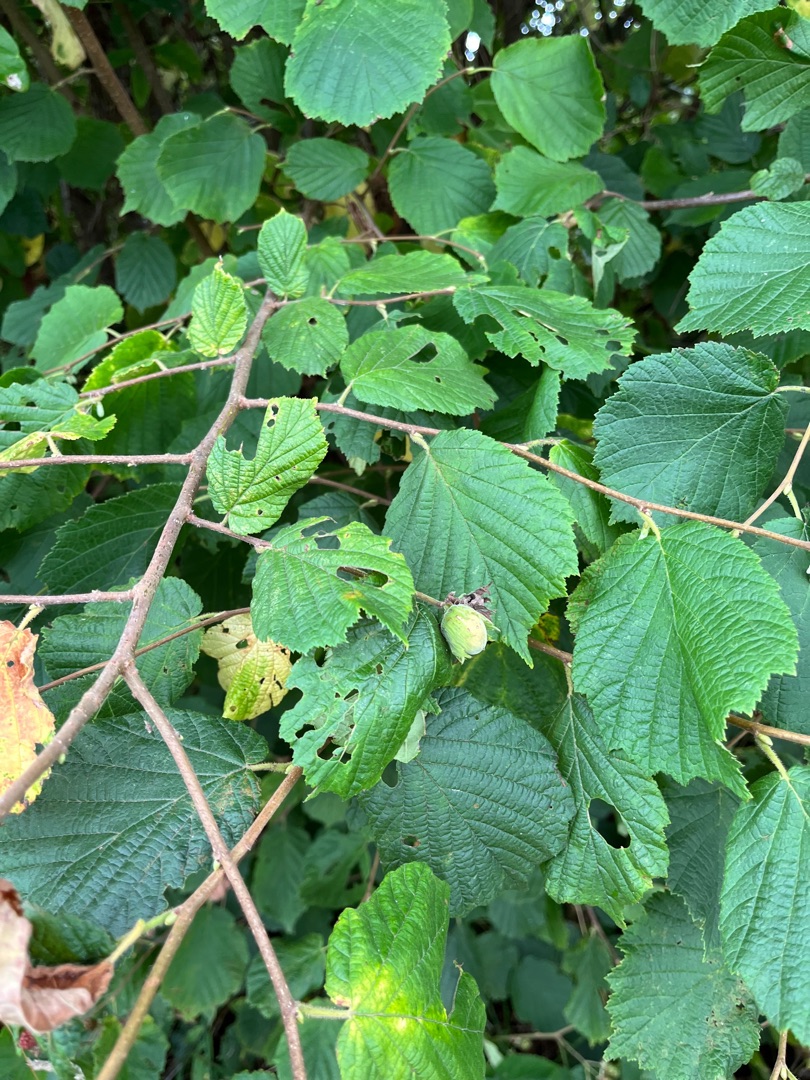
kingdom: Plantae
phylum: Tracheophyta
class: Magnoliopsida
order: Fagales
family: Betulaceae
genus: Corylus
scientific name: Corylus avellana
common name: Hassel
